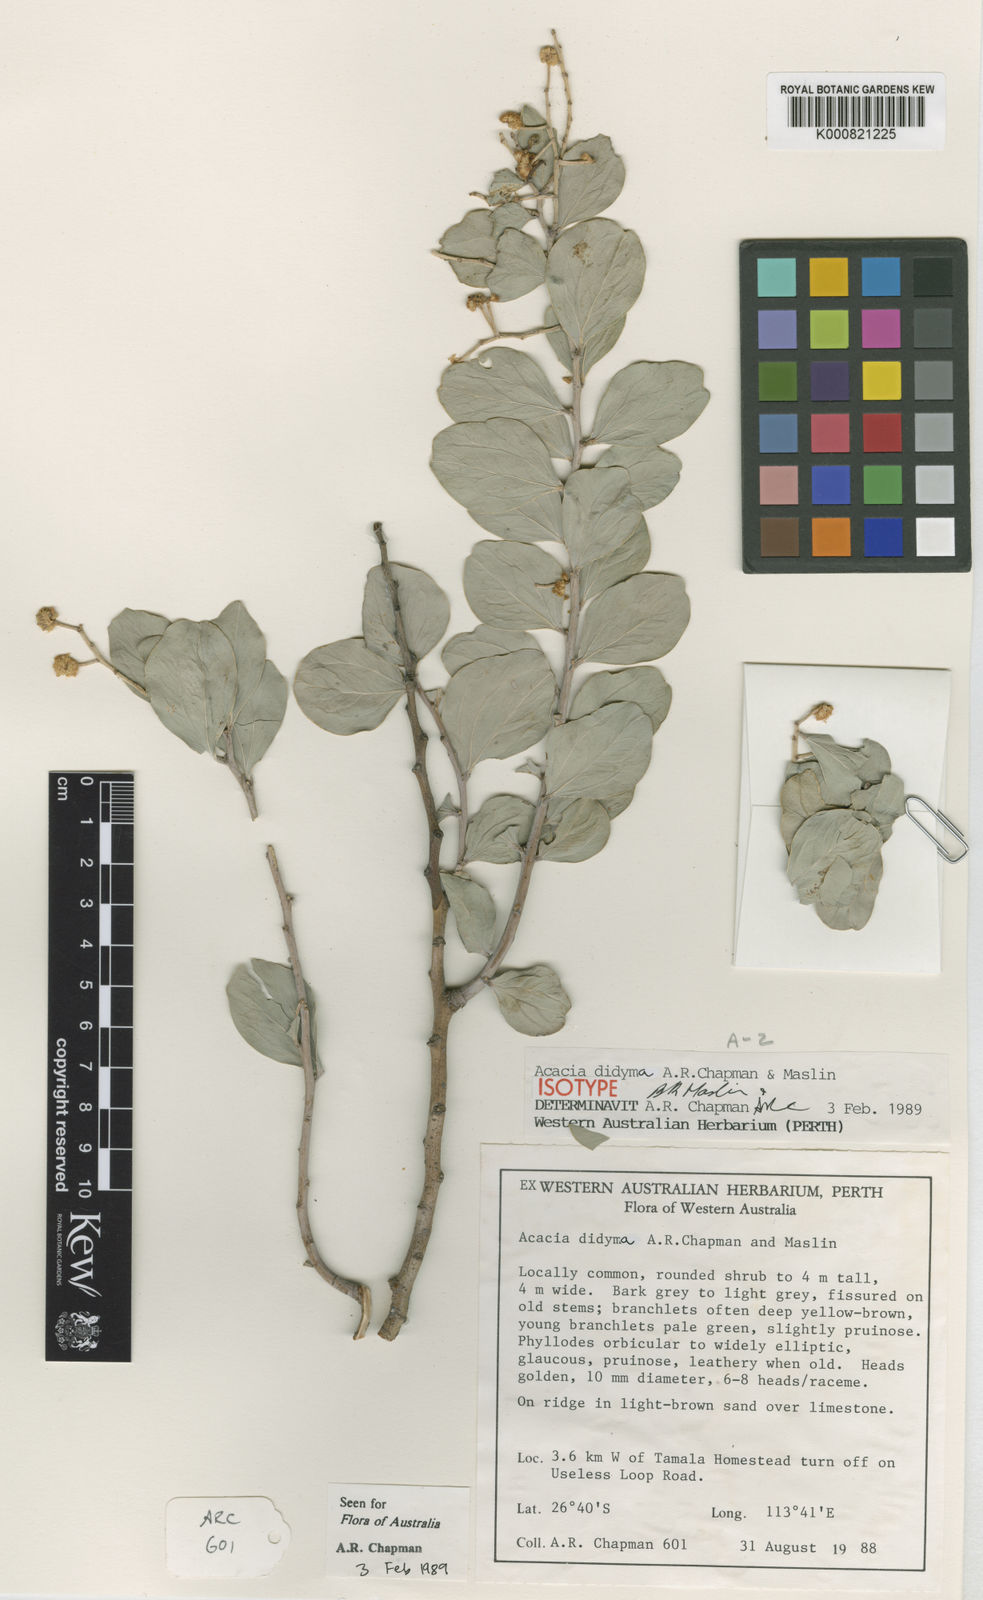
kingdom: Plantae
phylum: Tracheophyta
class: Magnoliopsida
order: Fabales
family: Fabaceae
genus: Acacia
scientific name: Acacia didyma
